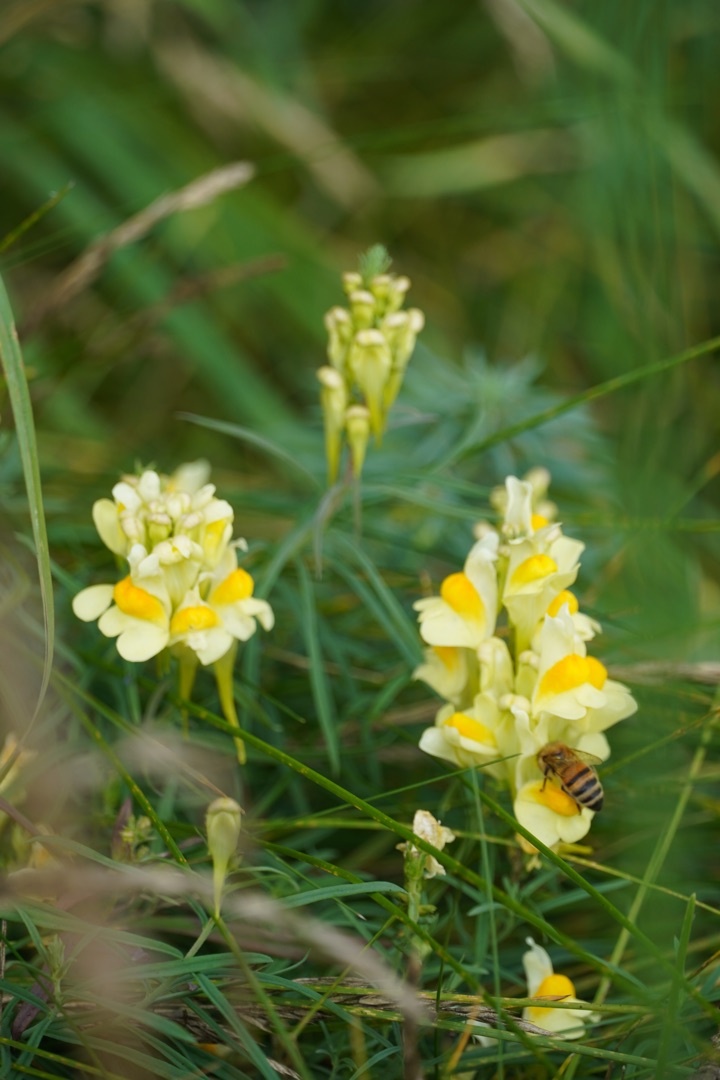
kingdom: Plantae
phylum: Tracheophyta
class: Magnoliopsida
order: Lamiales
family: Plantaginaceae
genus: Linaria
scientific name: Linaria vulgaris
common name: Almindelig torskemund
